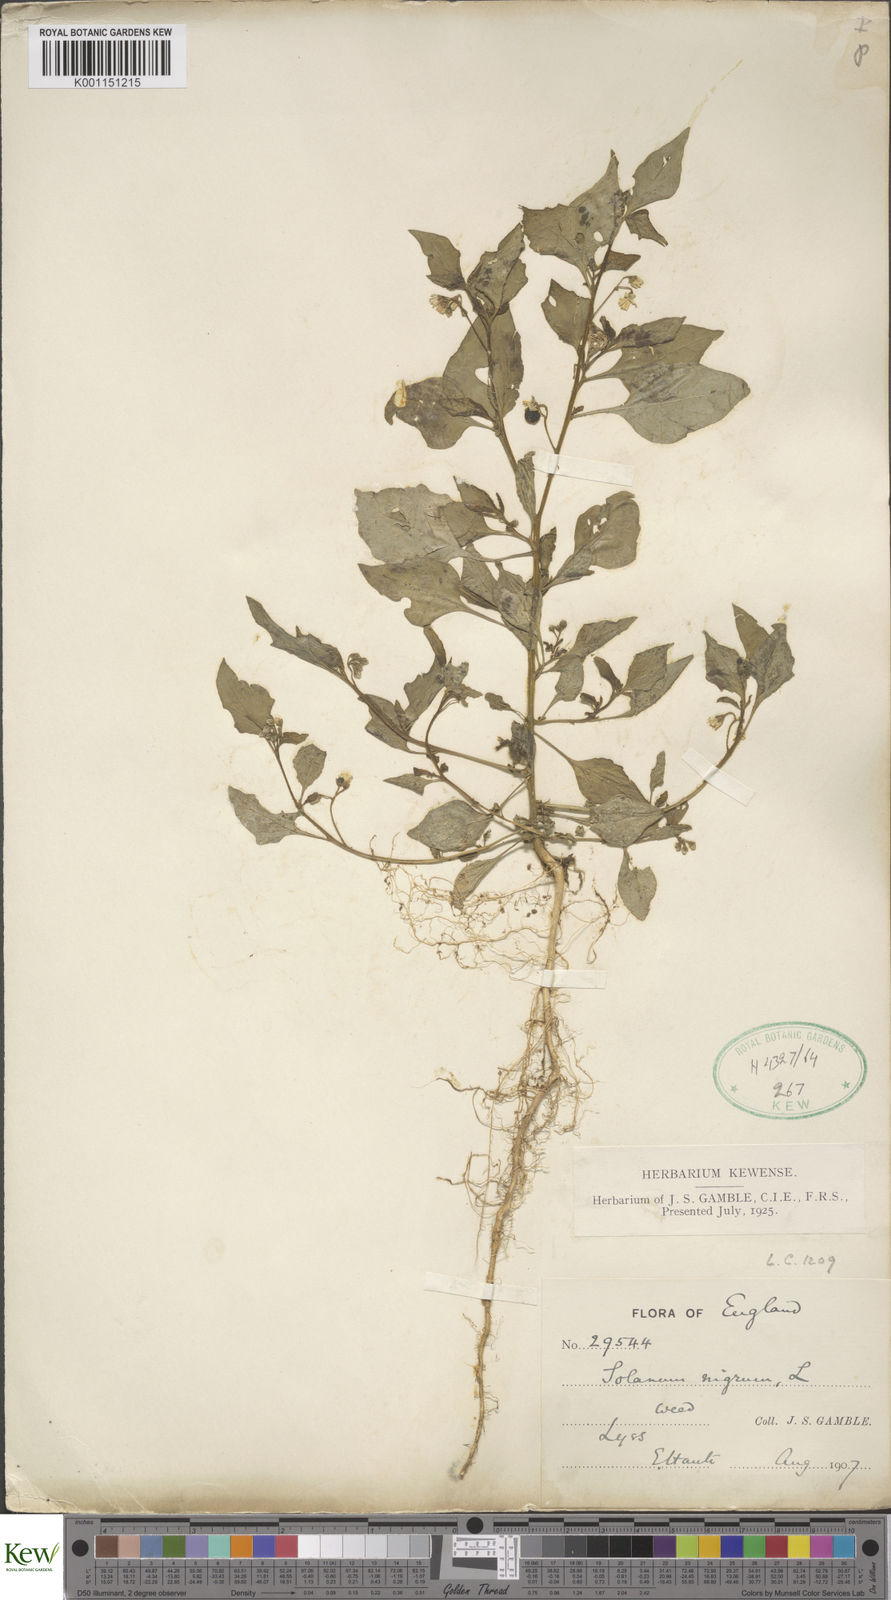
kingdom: Plantae
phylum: Tracheophyta
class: Magnoliopsida
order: Solanales
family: Solanaceae
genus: Solanum
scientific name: Solanum nigrum
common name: Black nightshade
